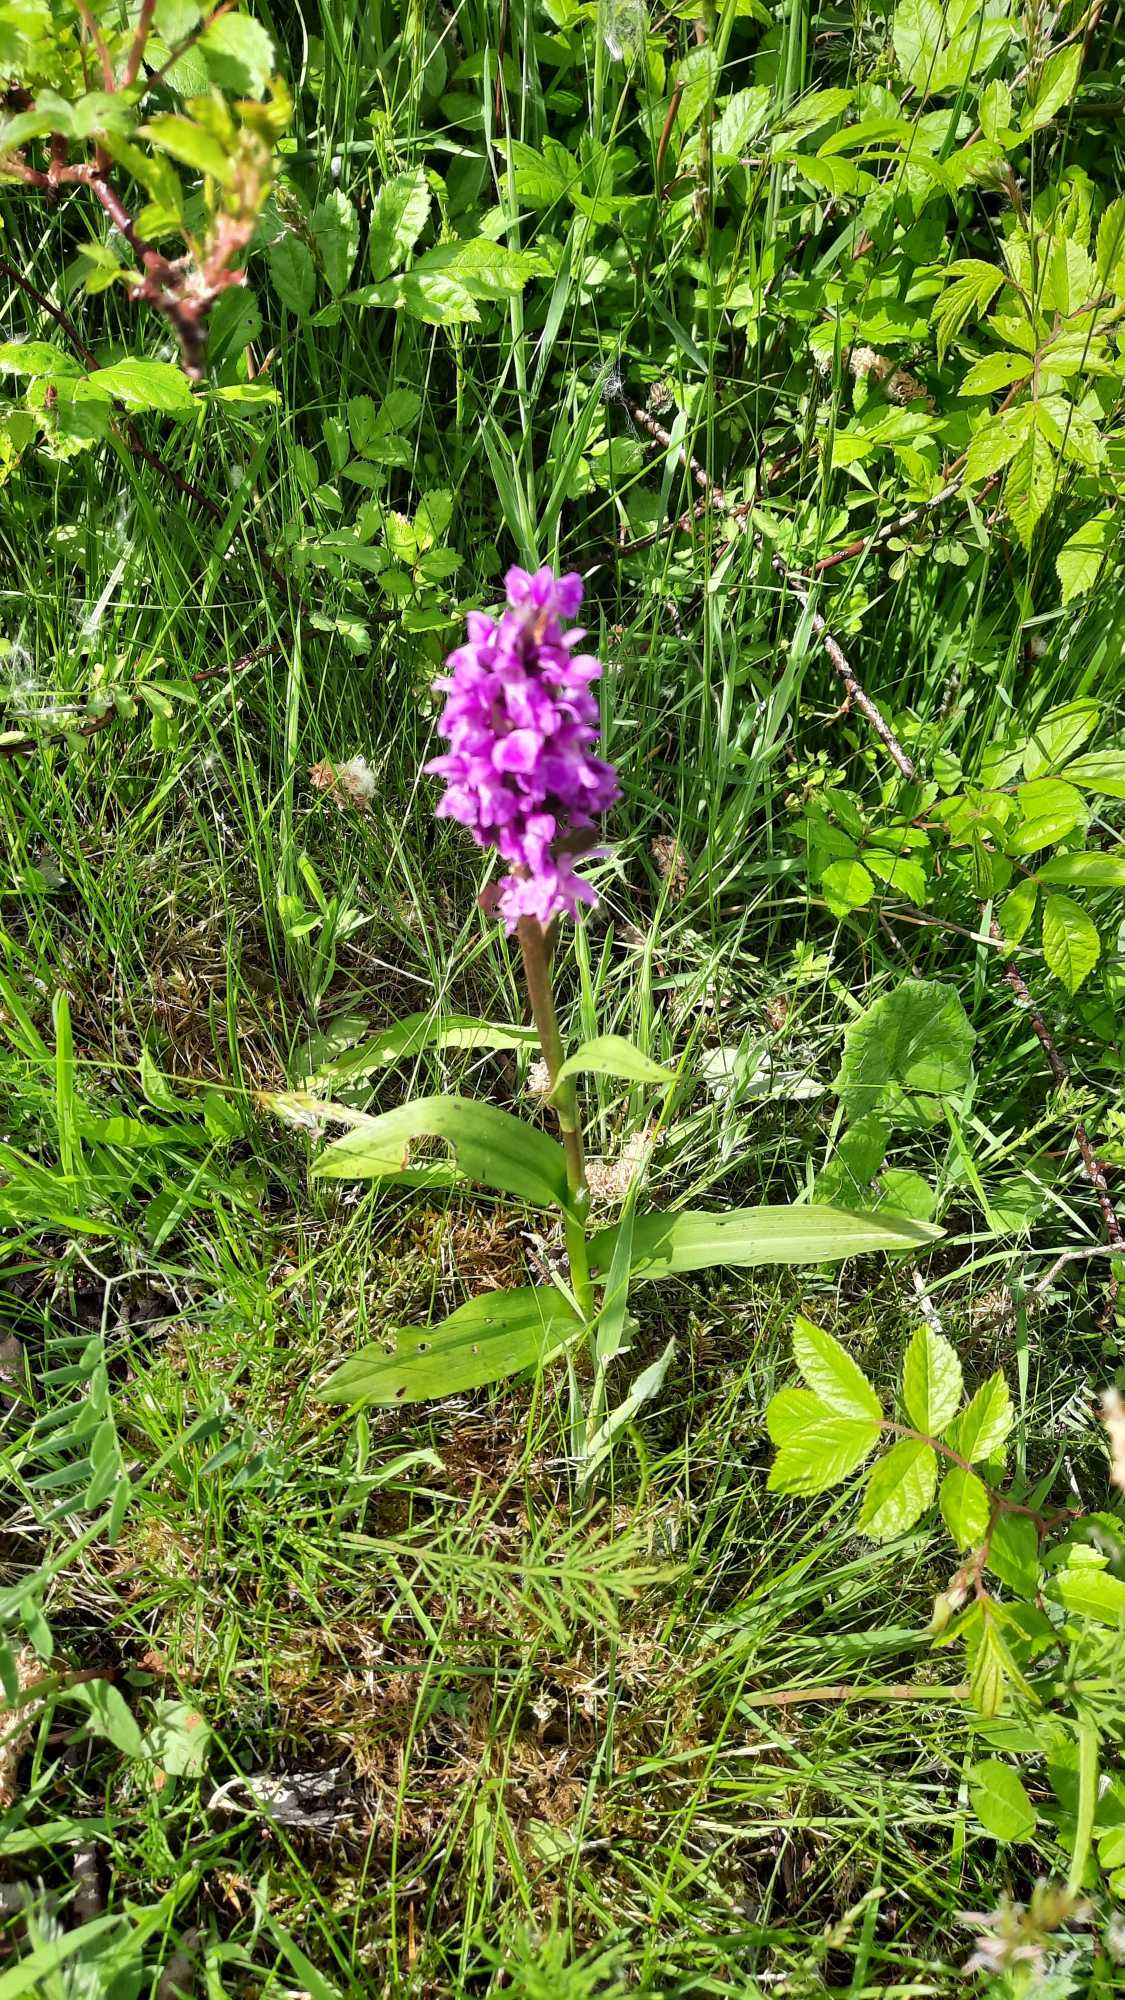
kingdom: Plantae
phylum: Tracheophyta
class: Liliopsida
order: Asparagales
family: Orchidaceae
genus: Dactylorhiza
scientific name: Dactylorhiza majalis
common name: Maj-gøgeurt
